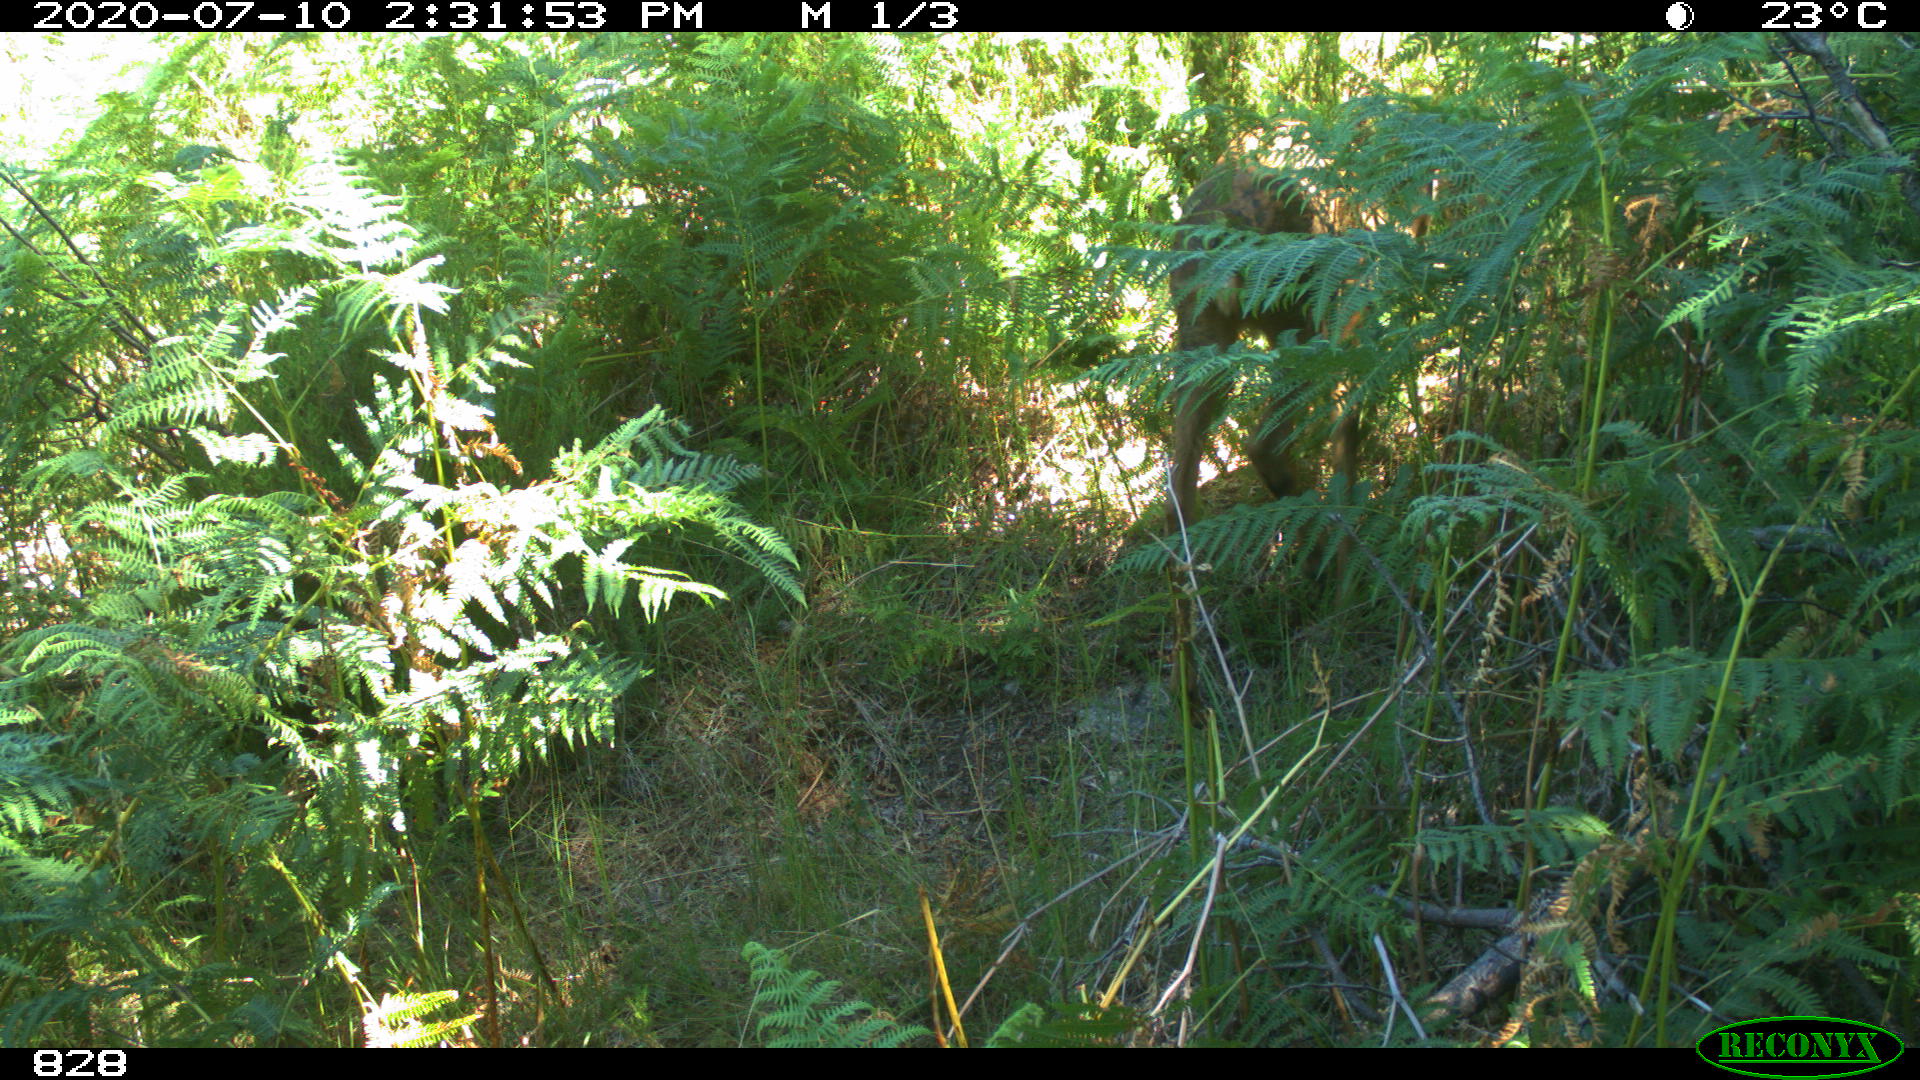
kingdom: Animalia
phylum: Chordata
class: Mammalia
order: Artiodactyla
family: Cervidae
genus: Capreolus
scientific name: Capreolus capreolus
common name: Western roe deer
